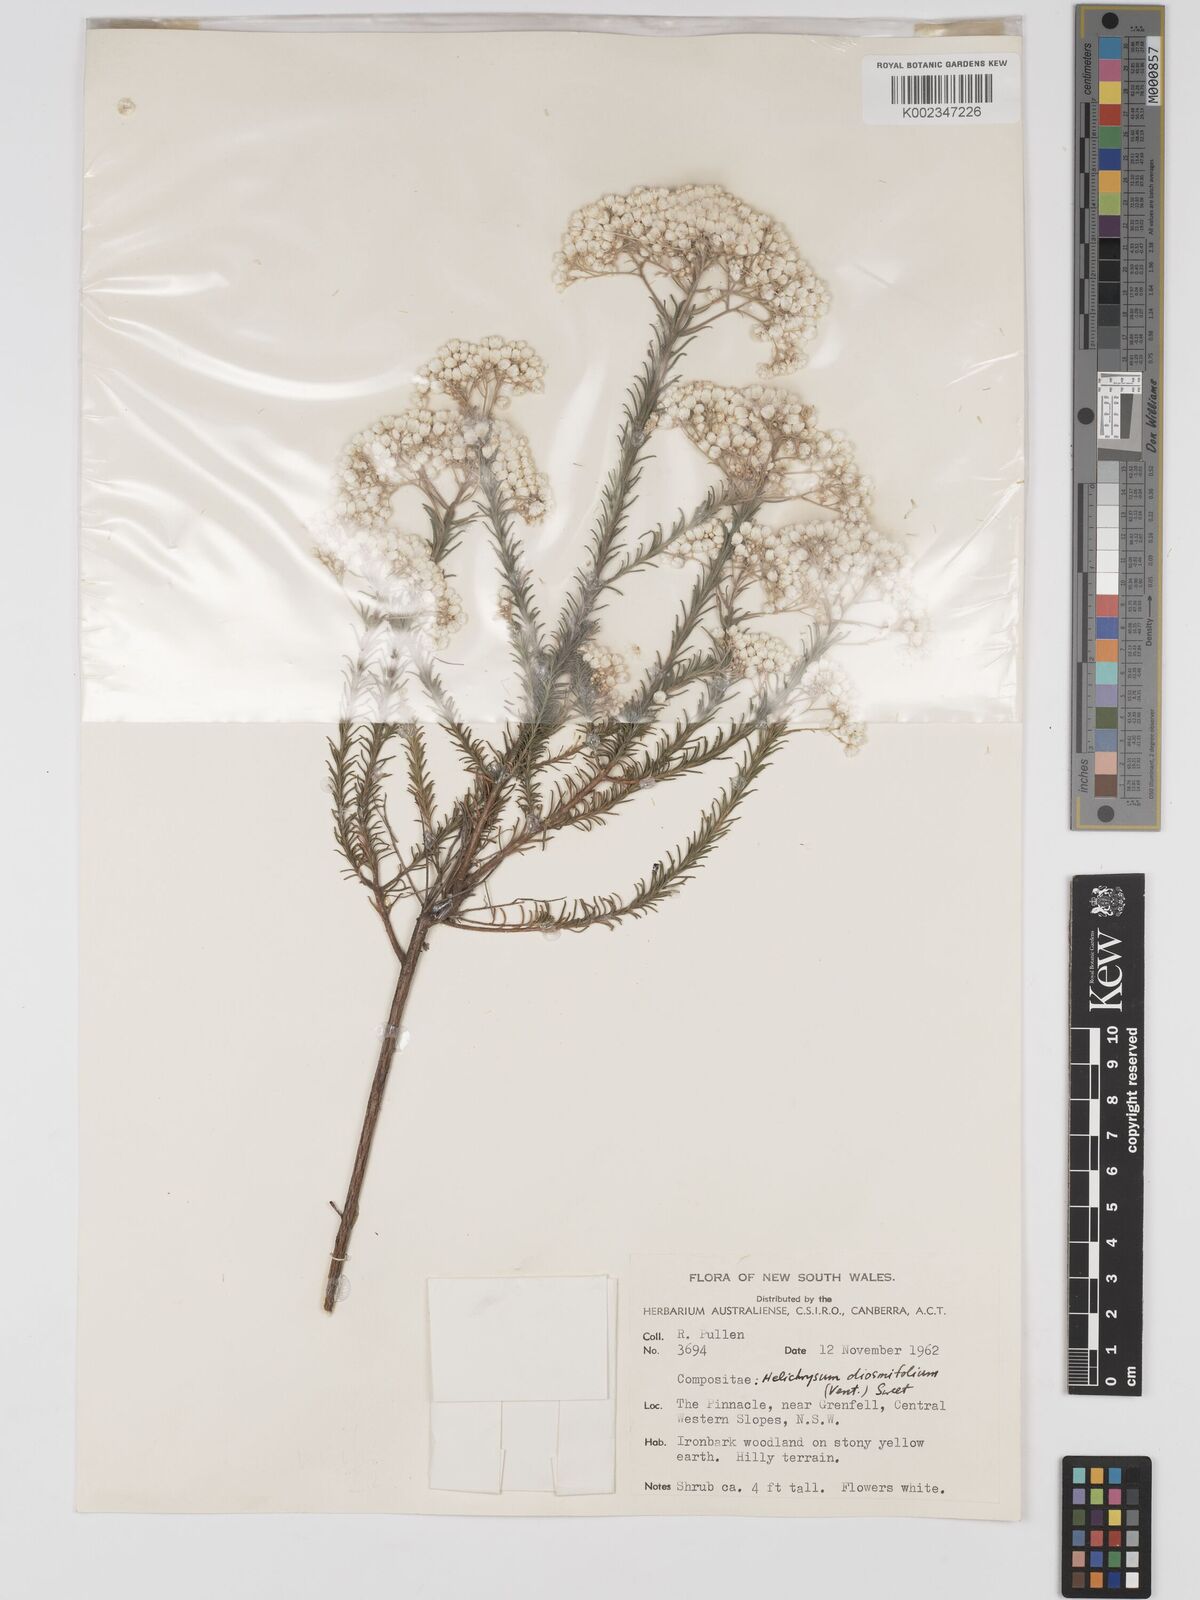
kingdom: Plantae
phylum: Tracheophyta
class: Magnoliopsida
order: Asterales
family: Asteraceae
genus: Ozothamnus
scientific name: Ozothamnus diosmifolius
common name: White-dogwood
